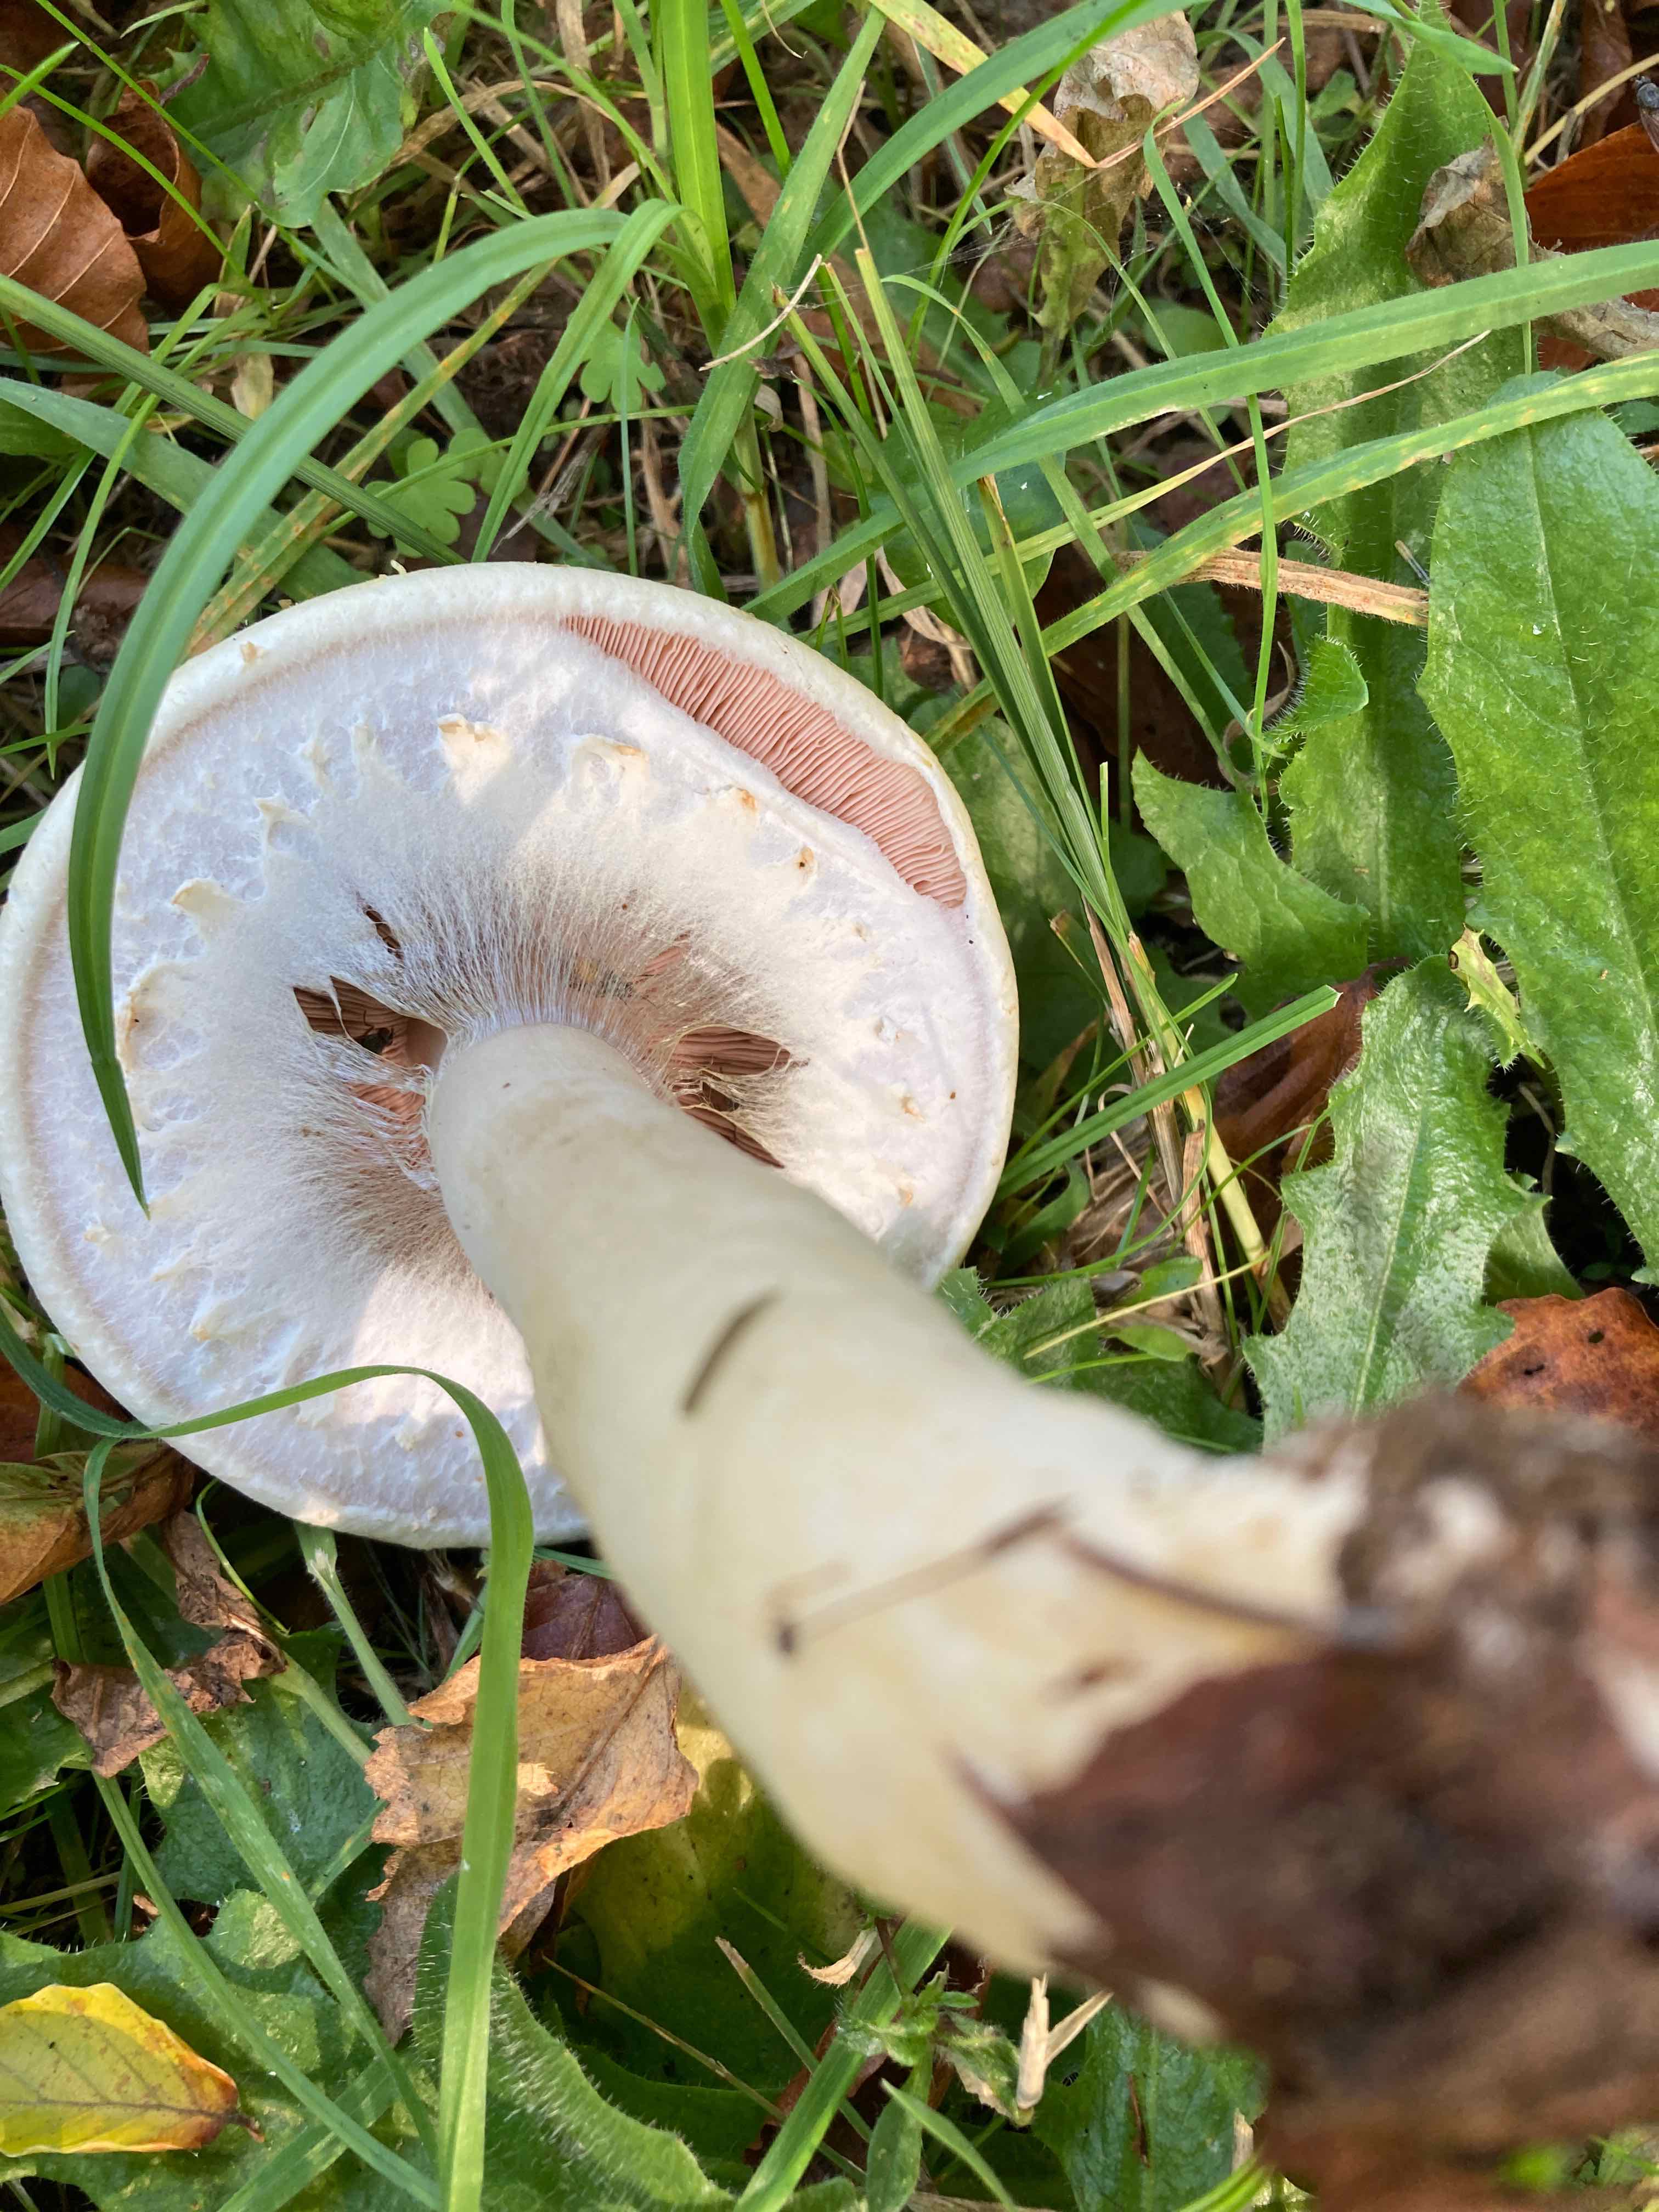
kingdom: Fungi
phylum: Basidiomycota
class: Agaricomycetes
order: Agaricales
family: Agaricaceae
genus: Agaricus
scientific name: Agaricus arvensis
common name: ager-champignon
